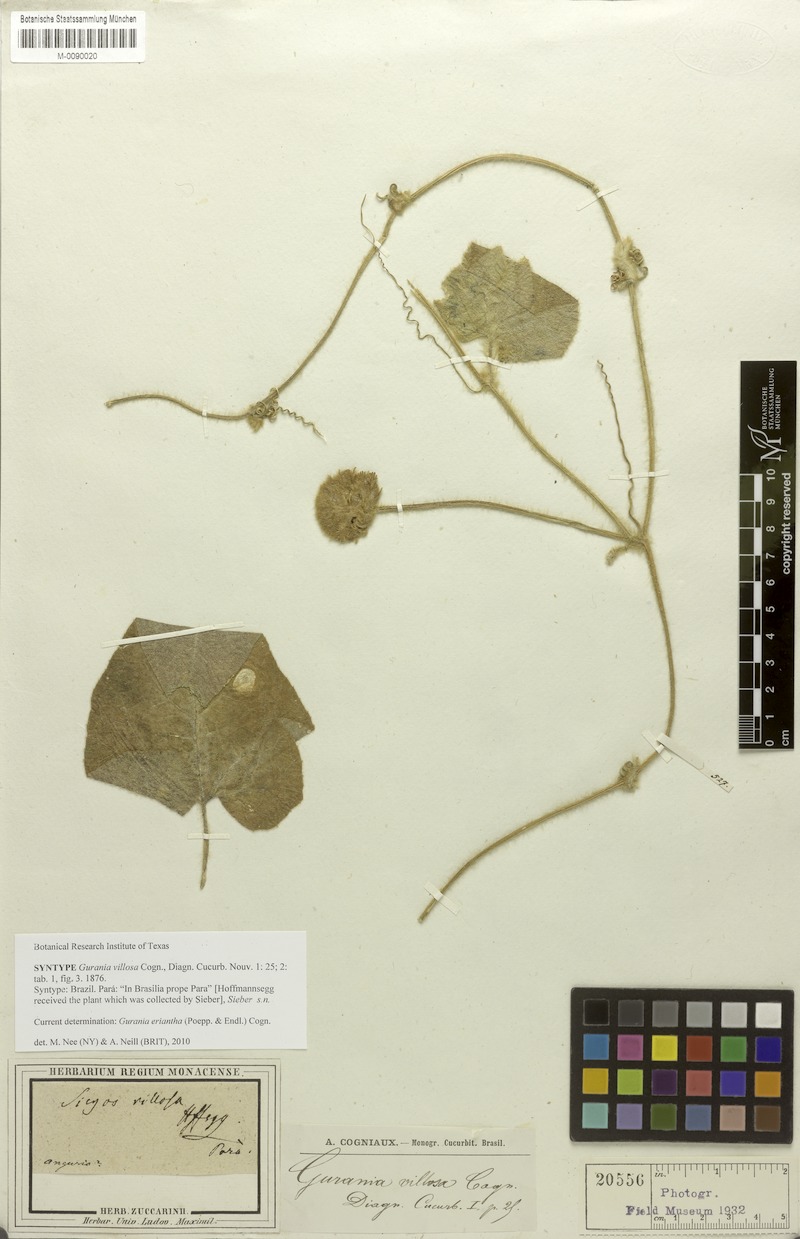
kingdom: Plantae
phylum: Tracheophyta
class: Magnoliopsida
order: Cucurbitales
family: Cucurbitaceae
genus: Gurania
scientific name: Gurania eriantha
